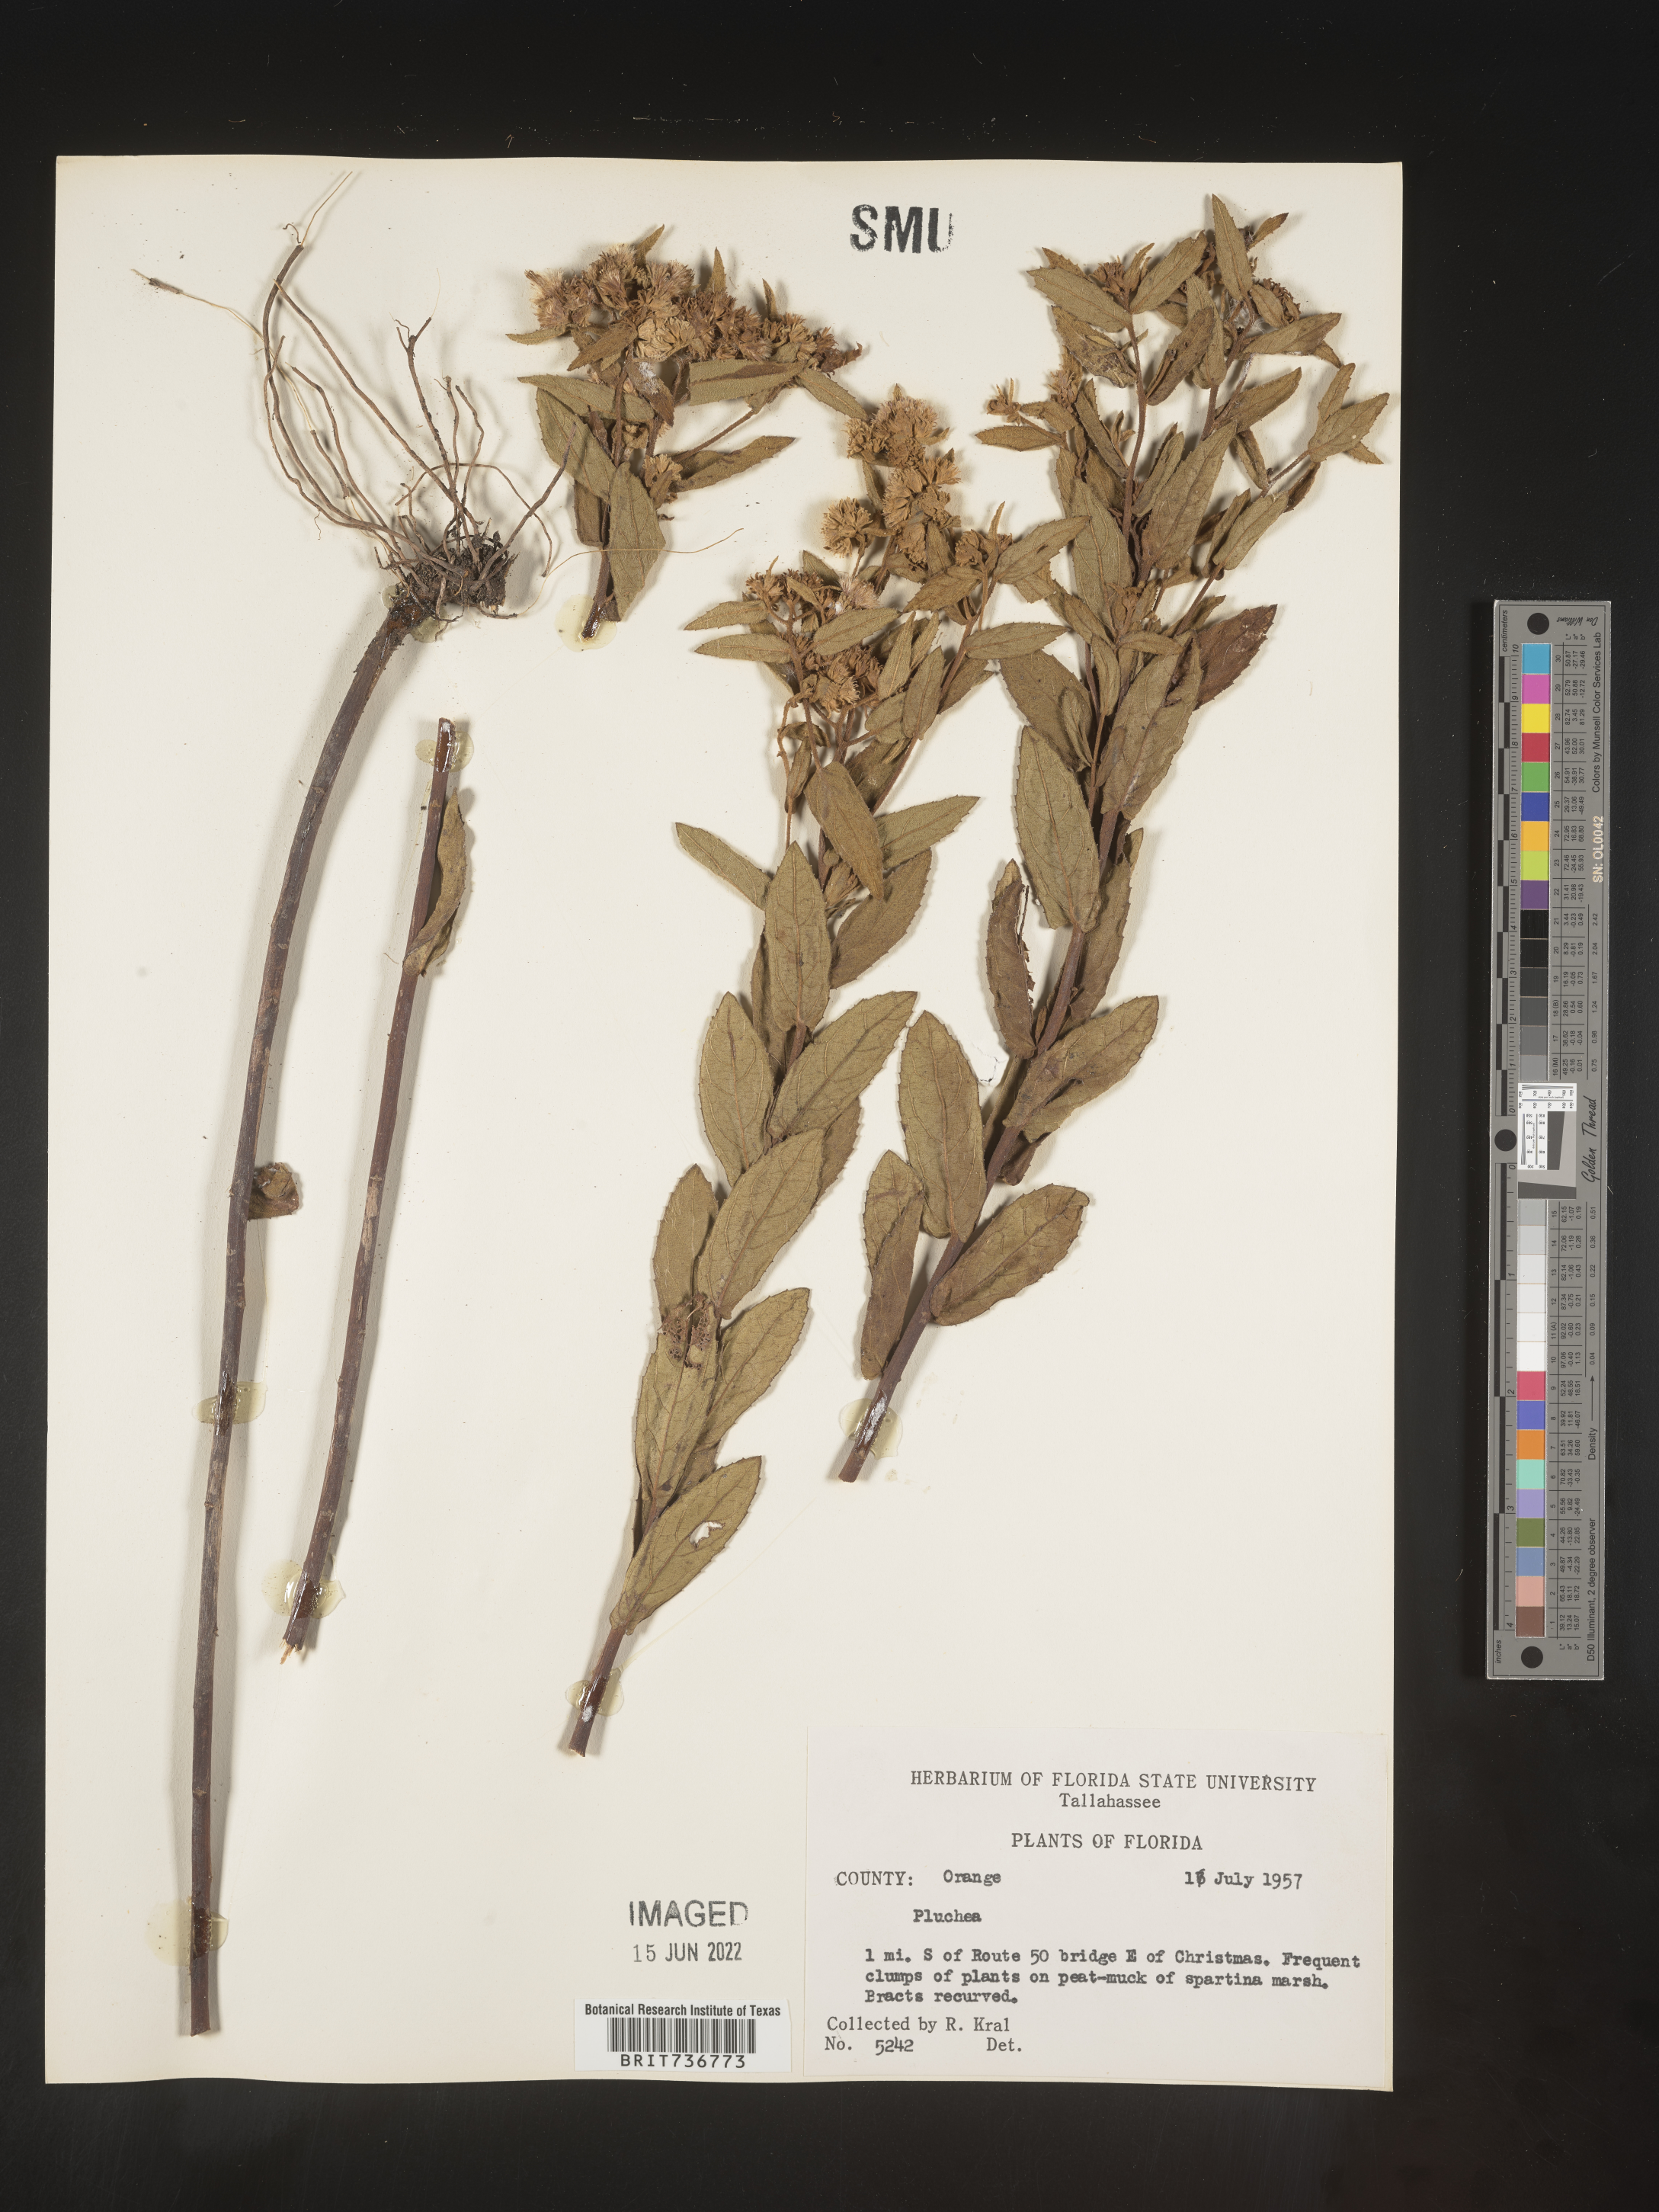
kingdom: Plantae
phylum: Tracheophyta
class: Magnoliopsida
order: Asterales
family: Asteraceae
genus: Pluchea
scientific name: Pluchea baccharis
